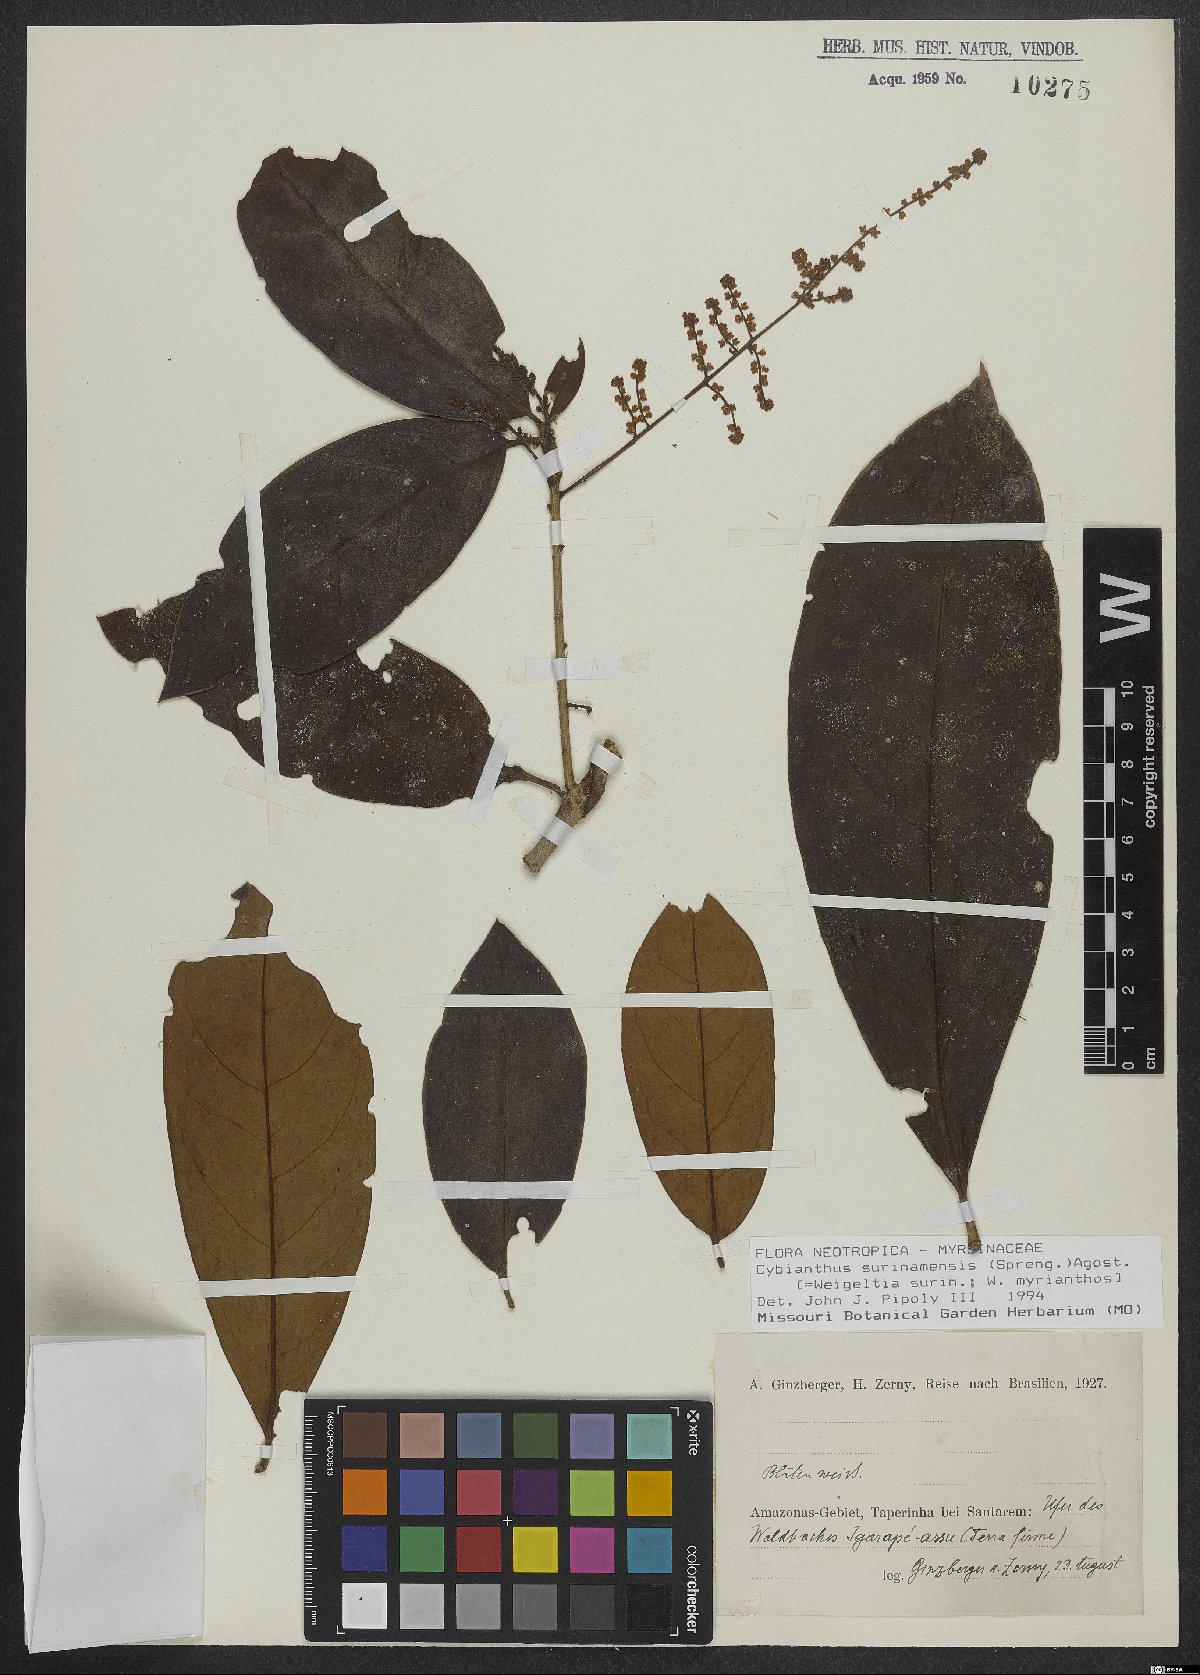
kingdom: Plantae
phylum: Tracheophyta
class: Magnoliopsida
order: Ericales
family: Primulaceae
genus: Cybianthus
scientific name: Cybianthus
